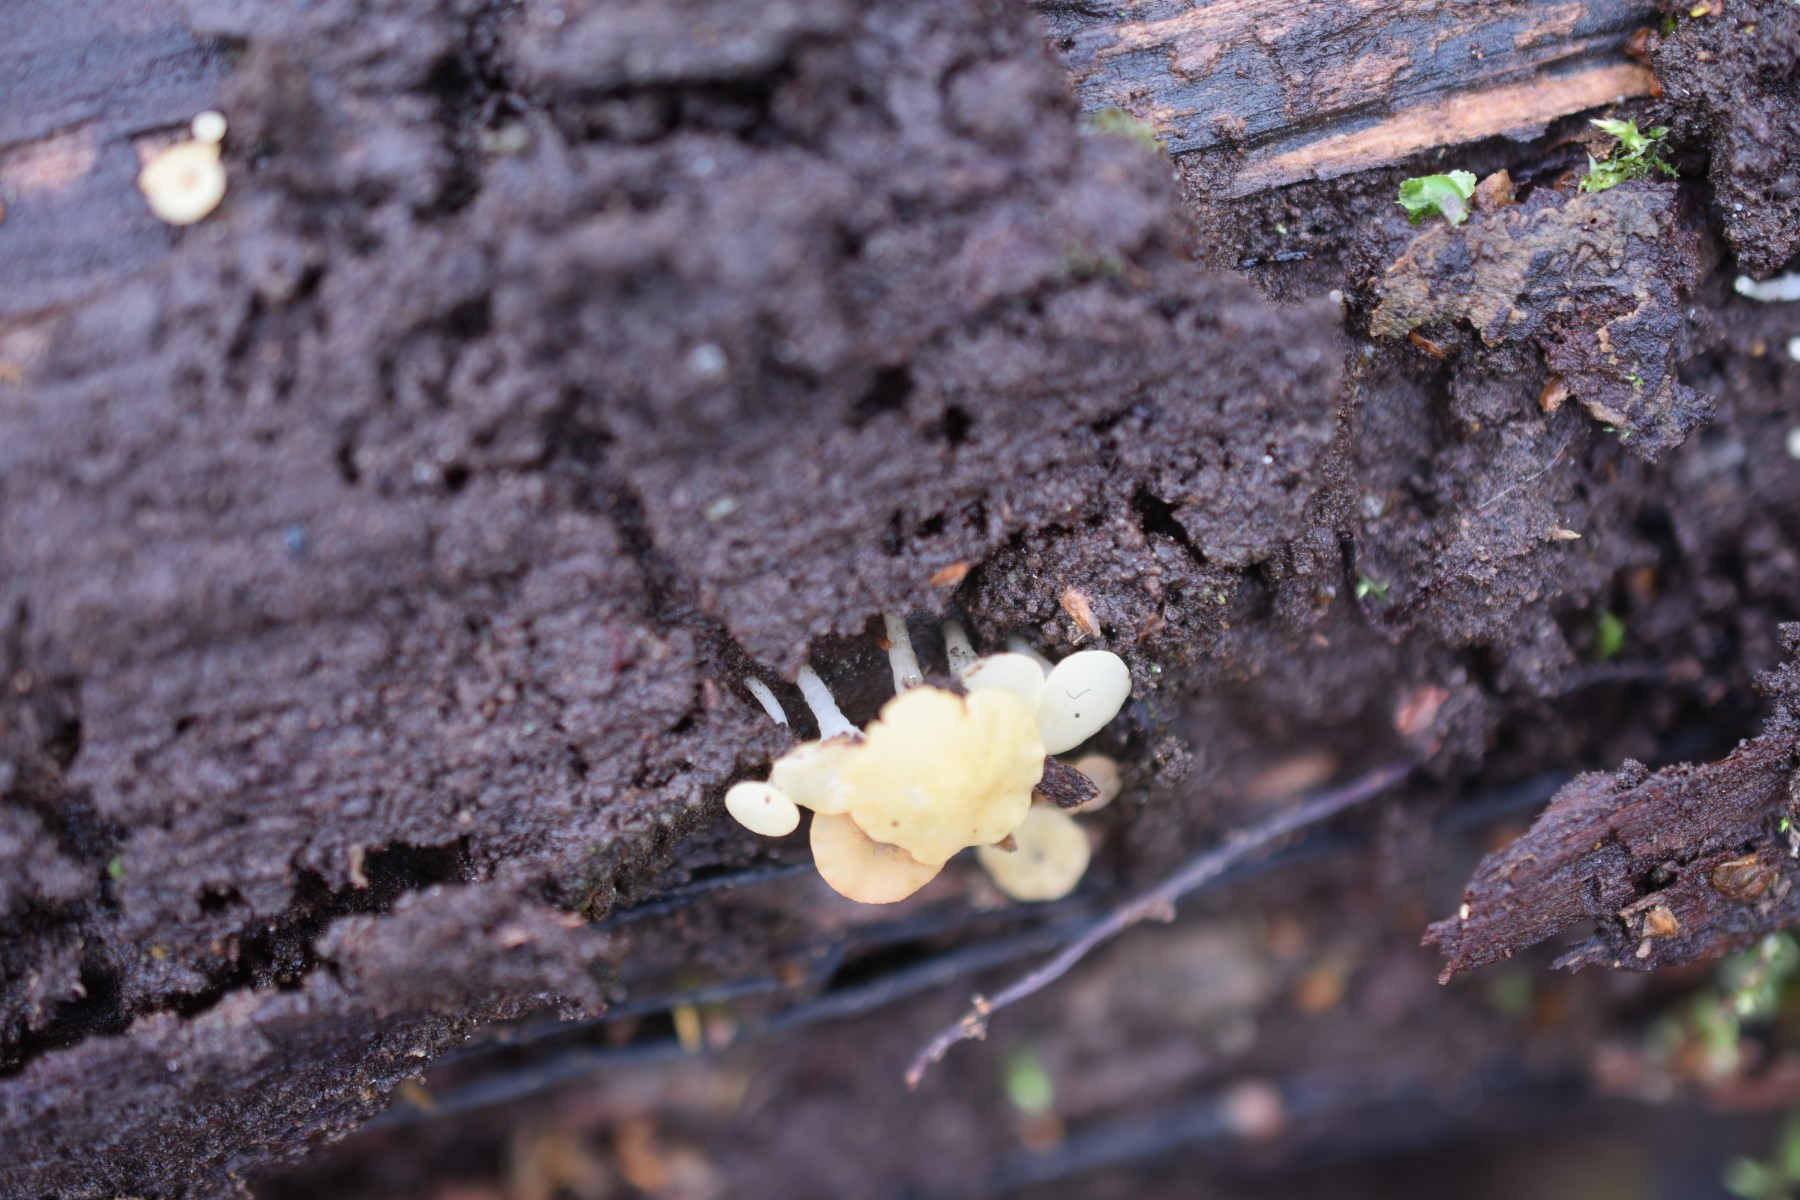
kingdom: Fungi
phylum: Ascomycota
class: Leotiomycetes
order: Helotiales
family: Helotiaceae
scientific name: Helotiaceae
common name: stilkskivefamilien
